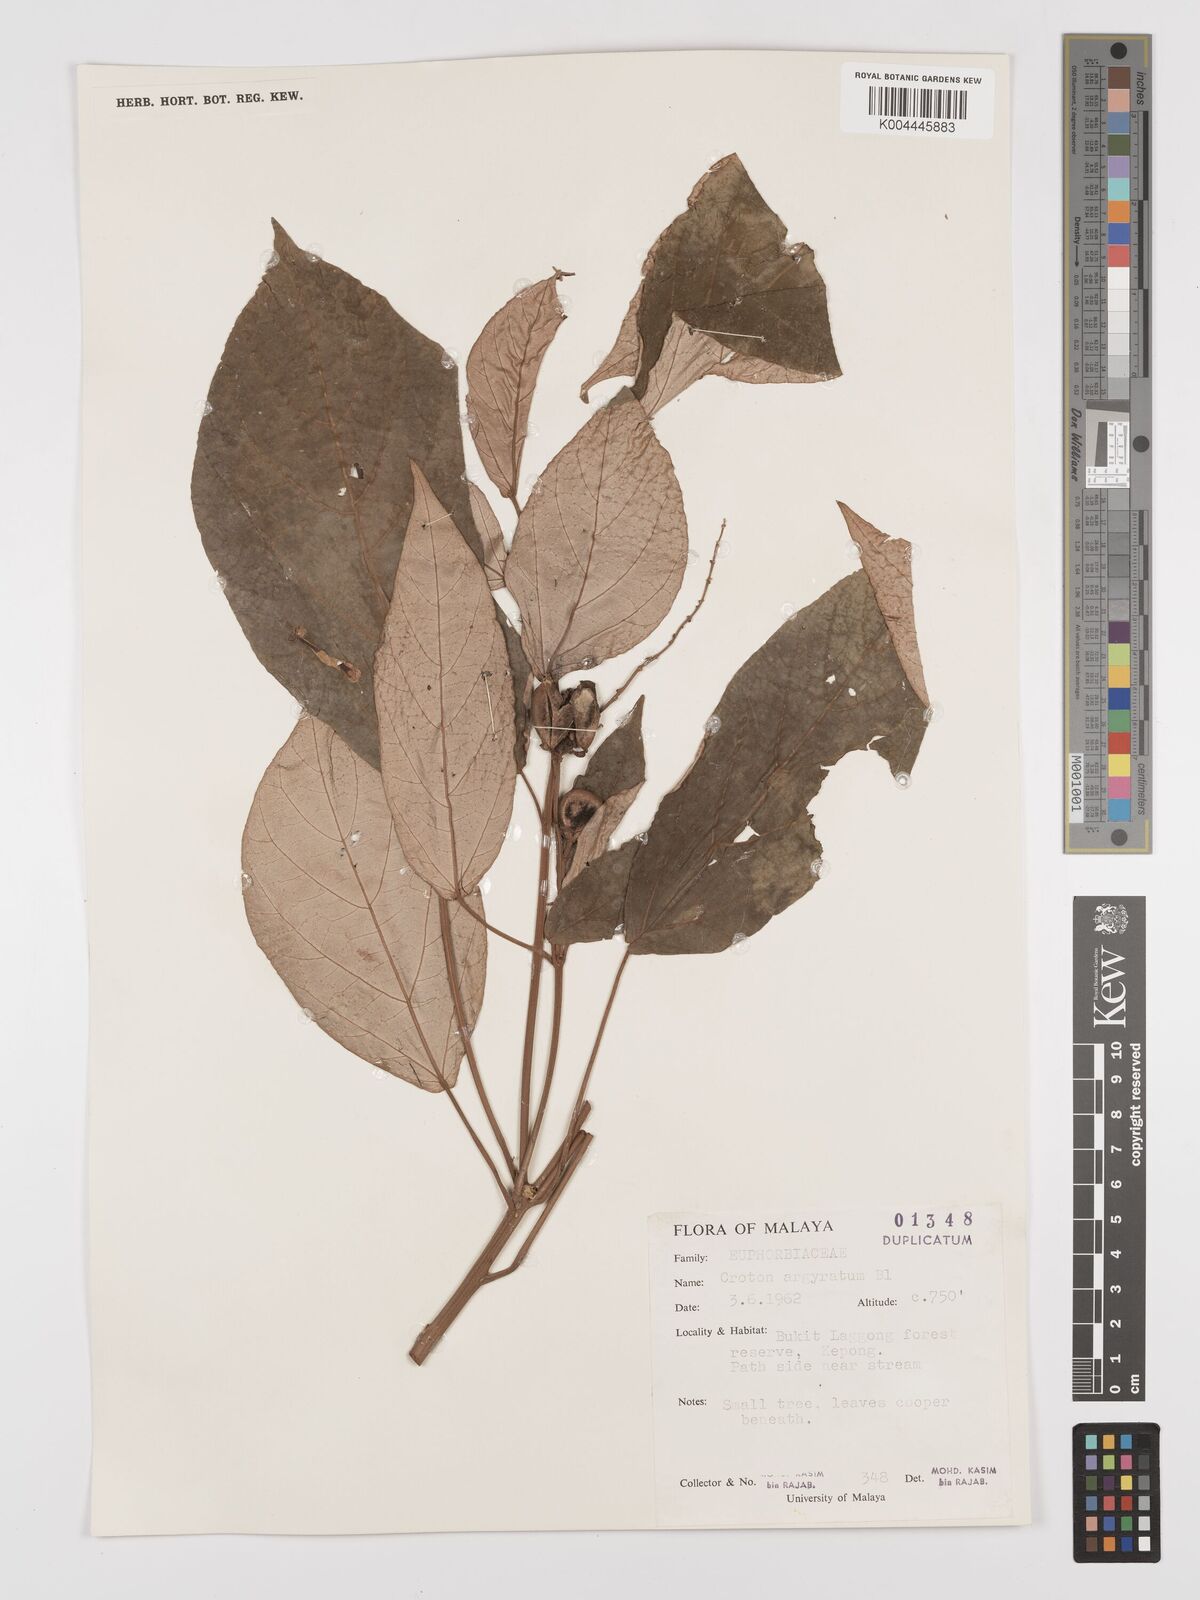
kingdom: Plantae
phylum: Tracheophyta
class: Magnoliopsida
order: Malpighiales
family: Euphorbiaceae
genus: Croton
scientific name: Croton argyratus
